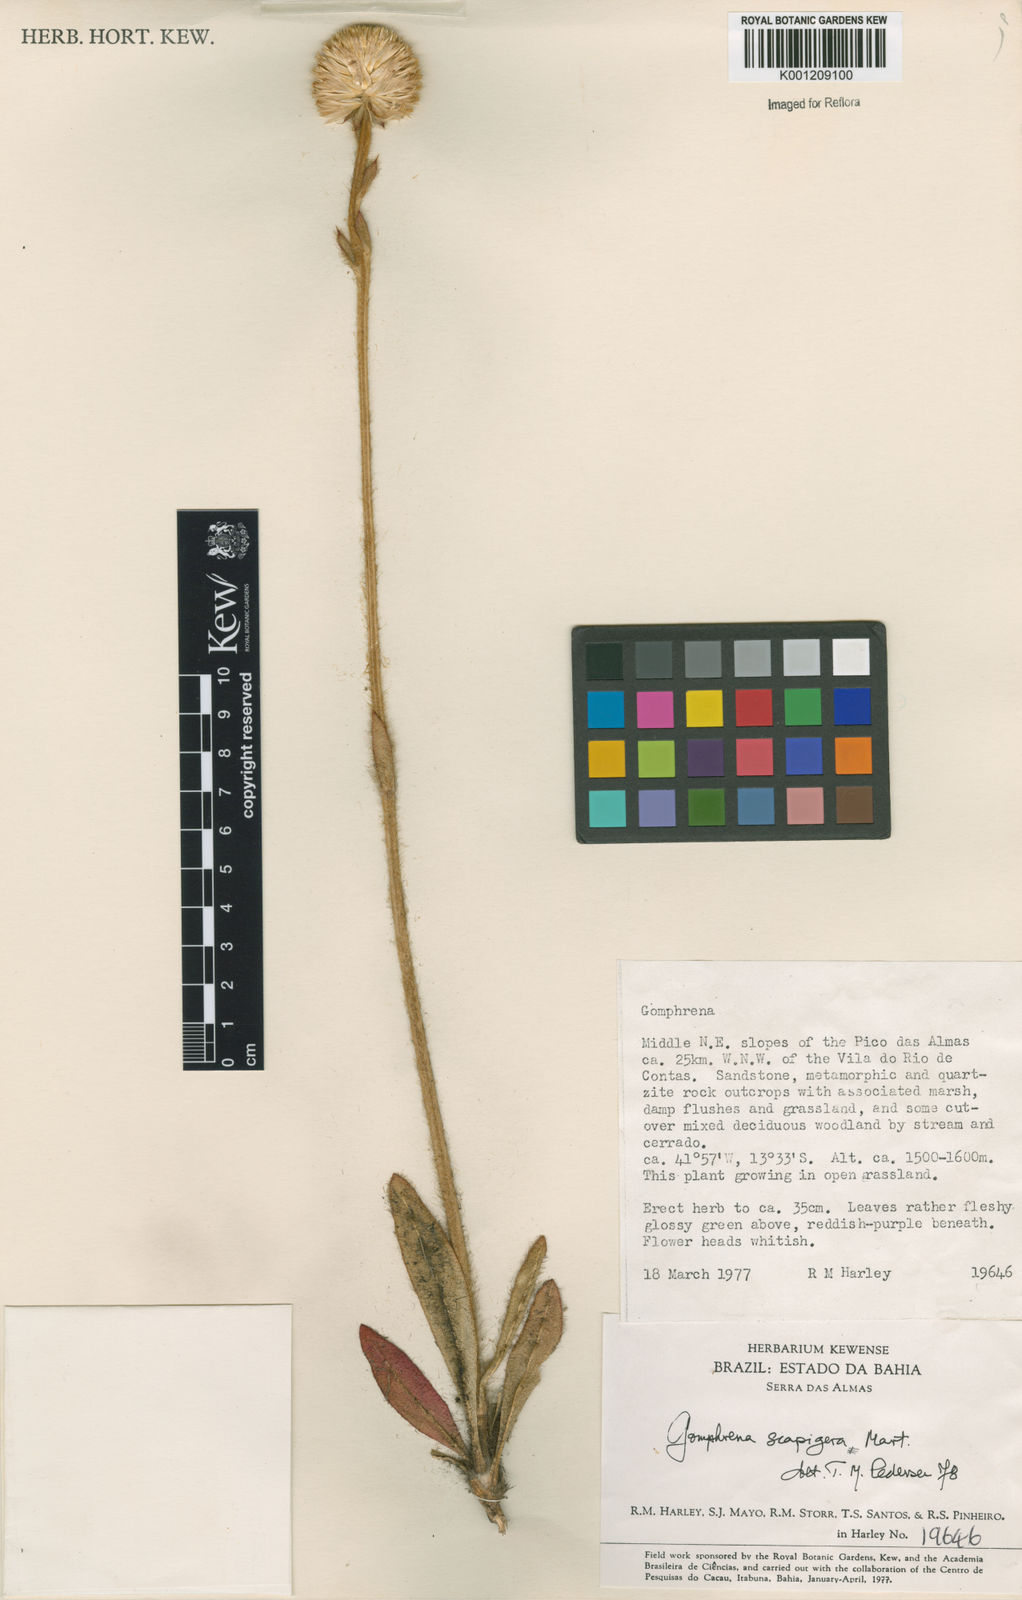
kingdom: Plantae
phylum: Tracheophyta
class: Magnoliopsida
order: Caryophyllales
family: Amaranthaceae
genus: Gomphrena
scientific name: Gomphrena scapigera
